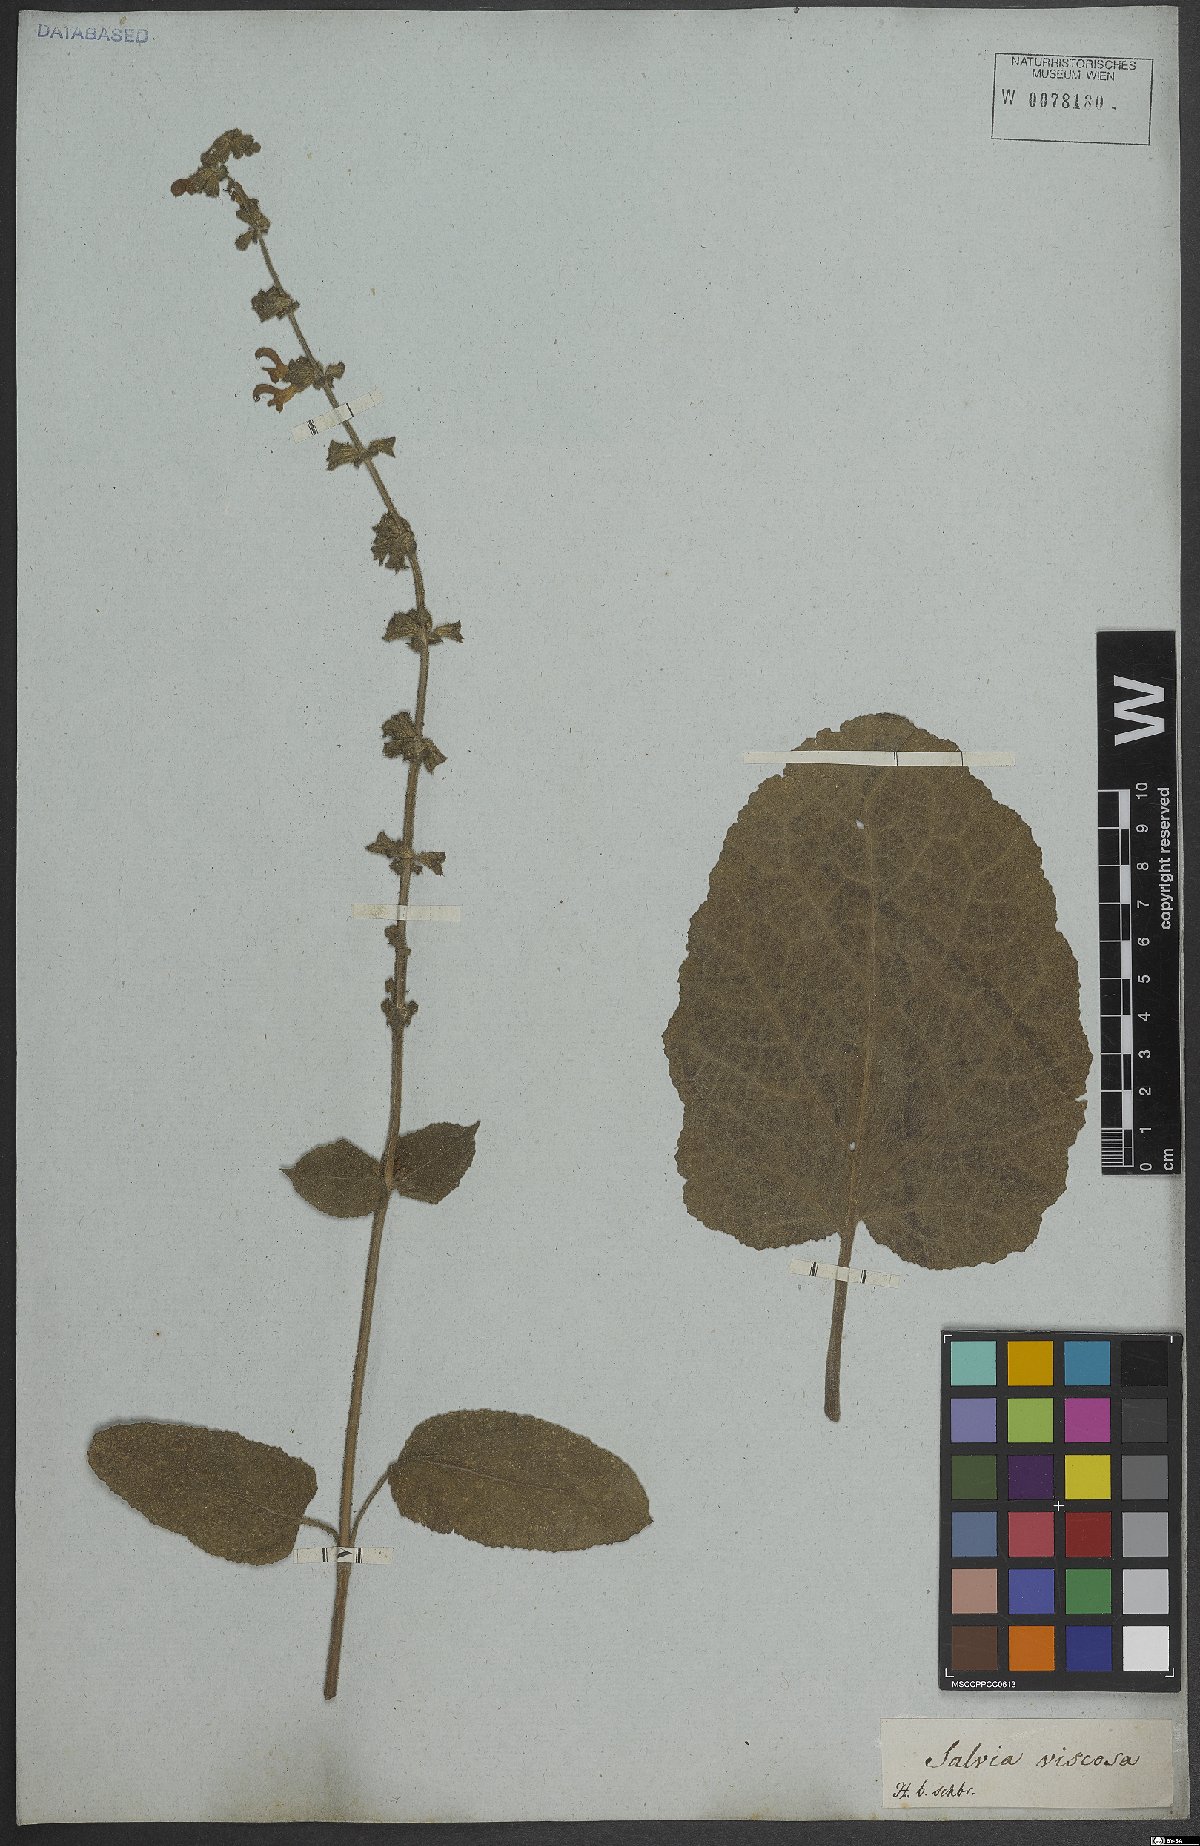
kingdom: Plantae
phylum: Tracheophyta
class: Magnoliopsida
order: Lamiales
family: Lamiaceae
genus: Salvia
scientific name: Salvia viscosa
